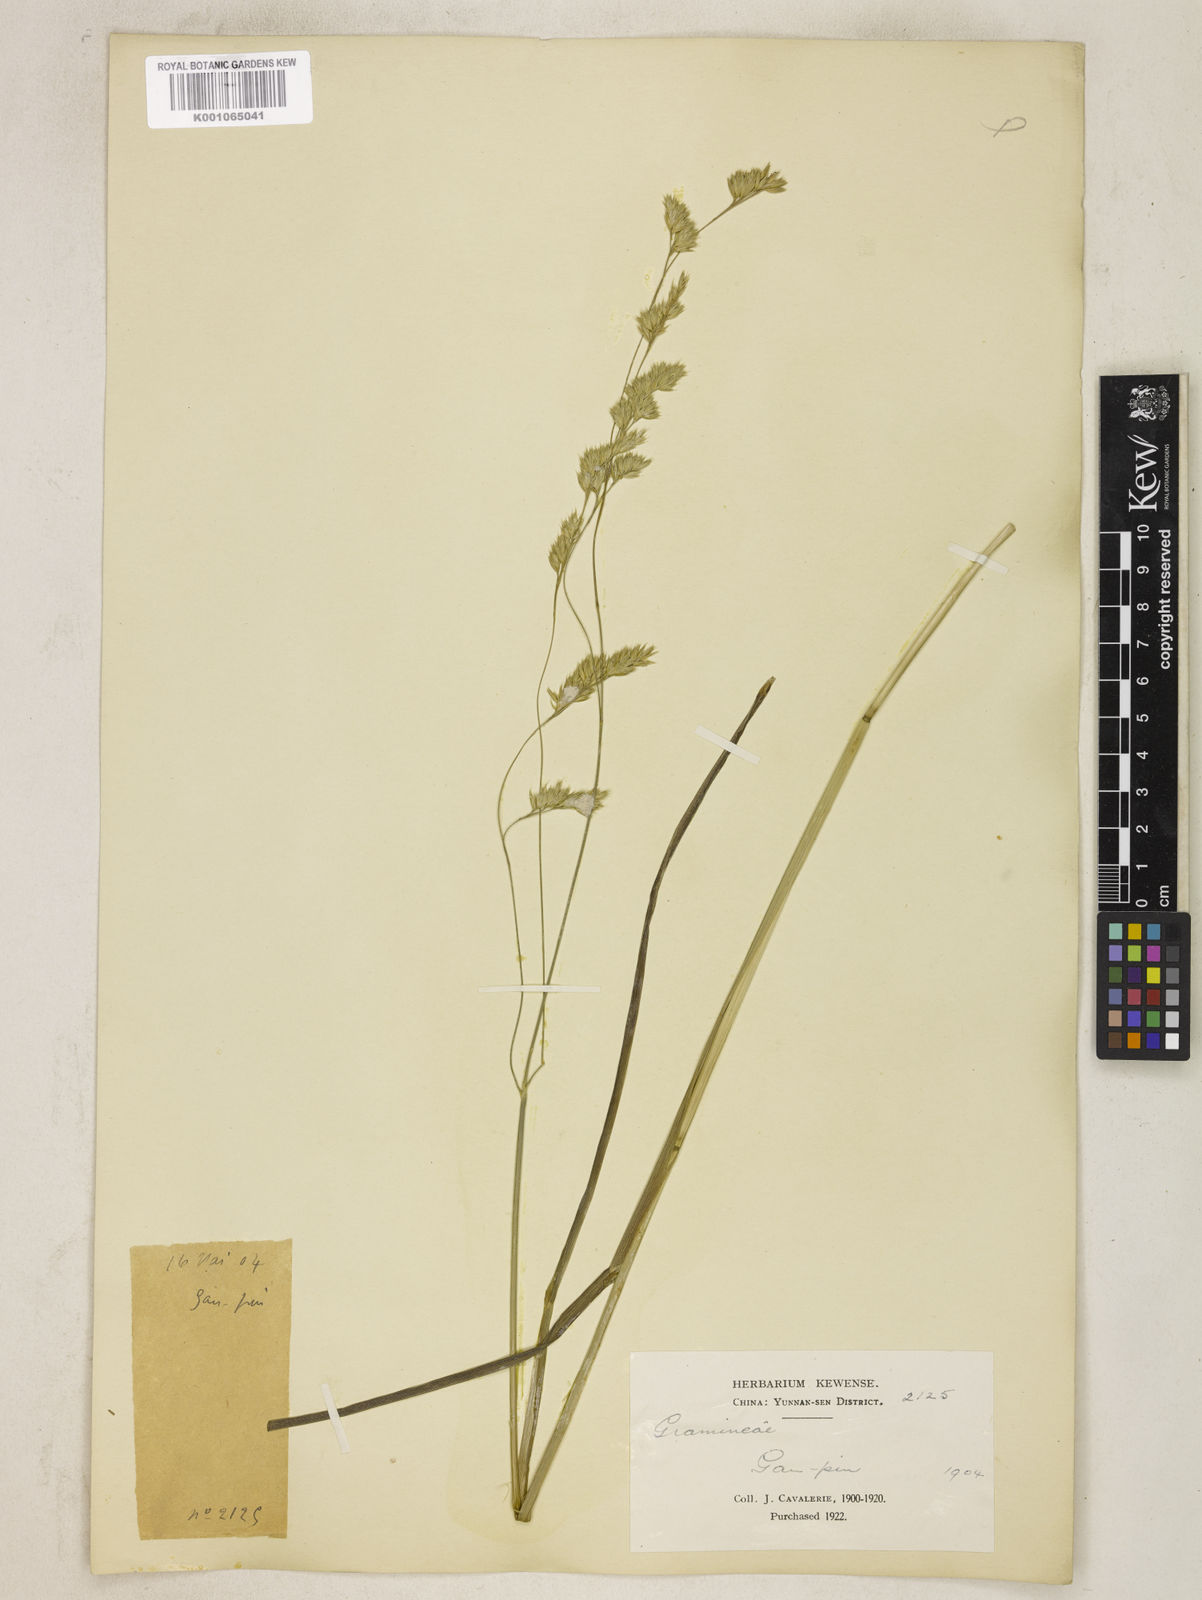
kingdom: Plantae
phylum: Tracheophyta
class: Liliopsida
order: Poales
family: Poaceae
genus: Dactylis
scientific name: Dactylis glomerata
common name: Orchardgrass
